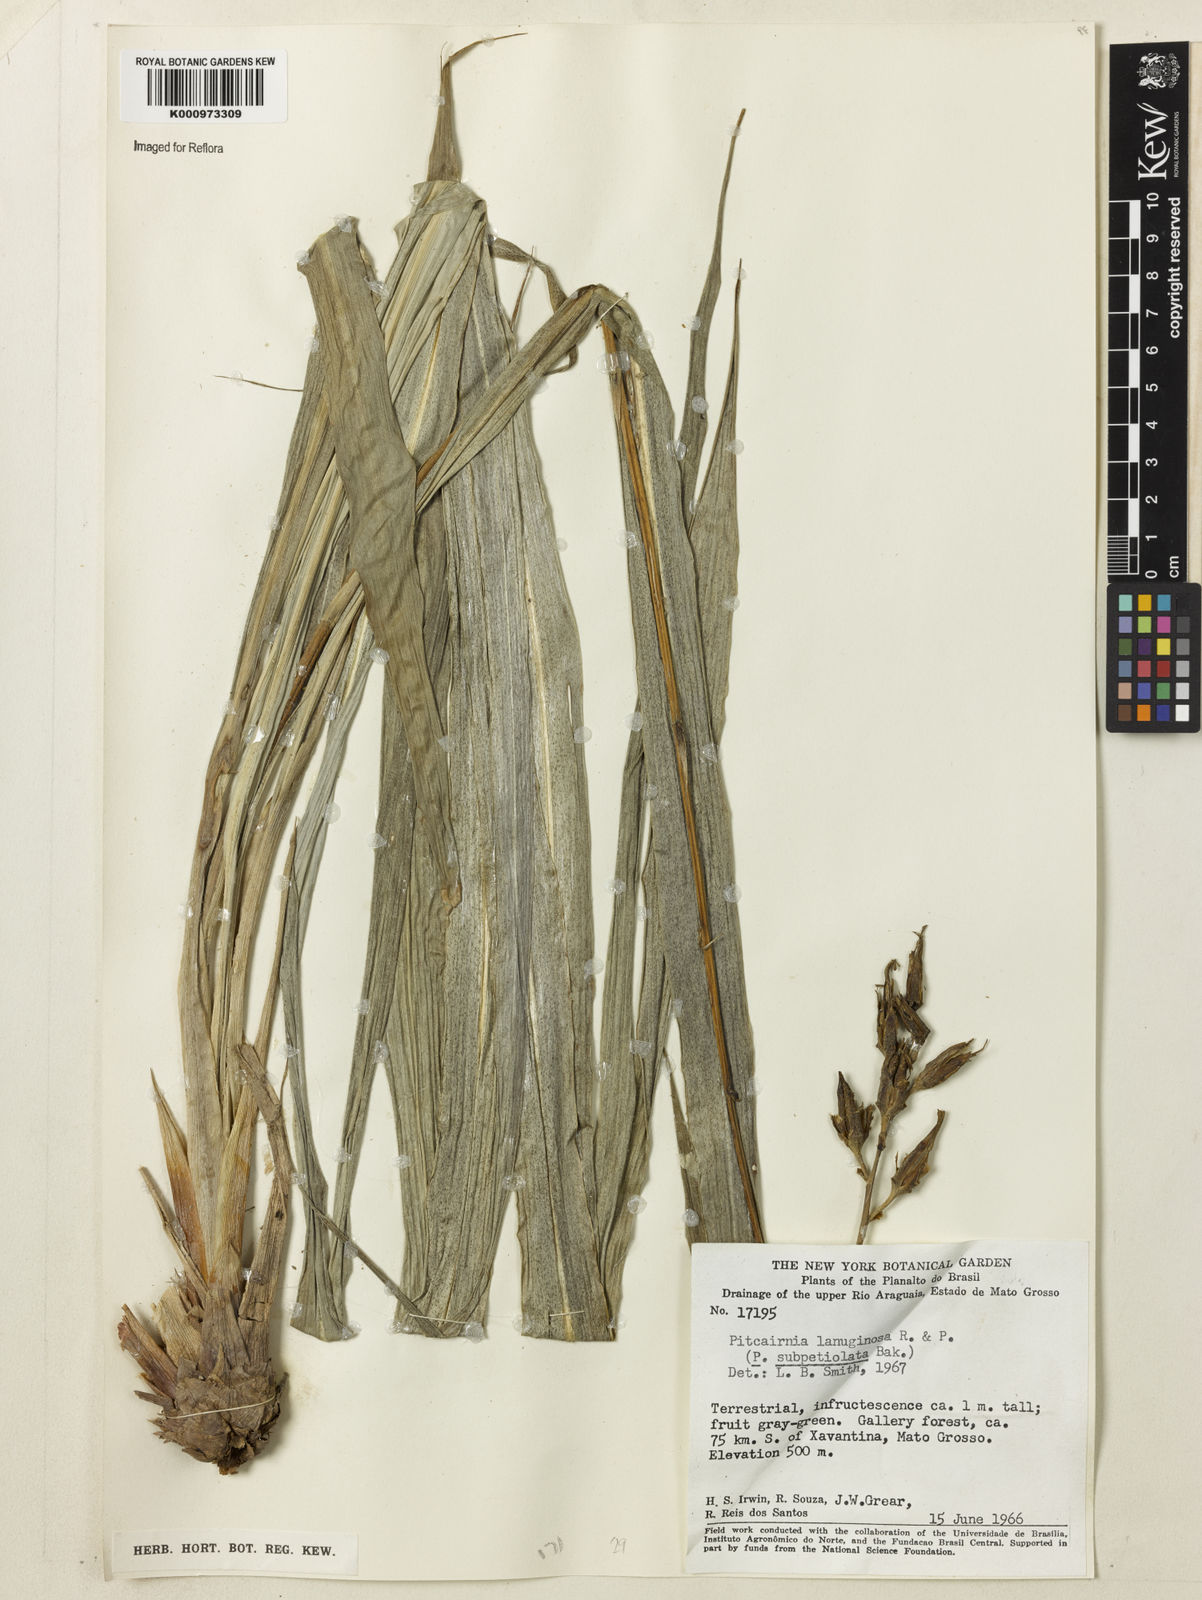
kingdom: Plantae
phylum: Tracheophyta
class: Liliopsida
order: Poales
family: Bromeliaceae
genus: Pitcairnia
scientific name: Pitcairnia lanuginosa
